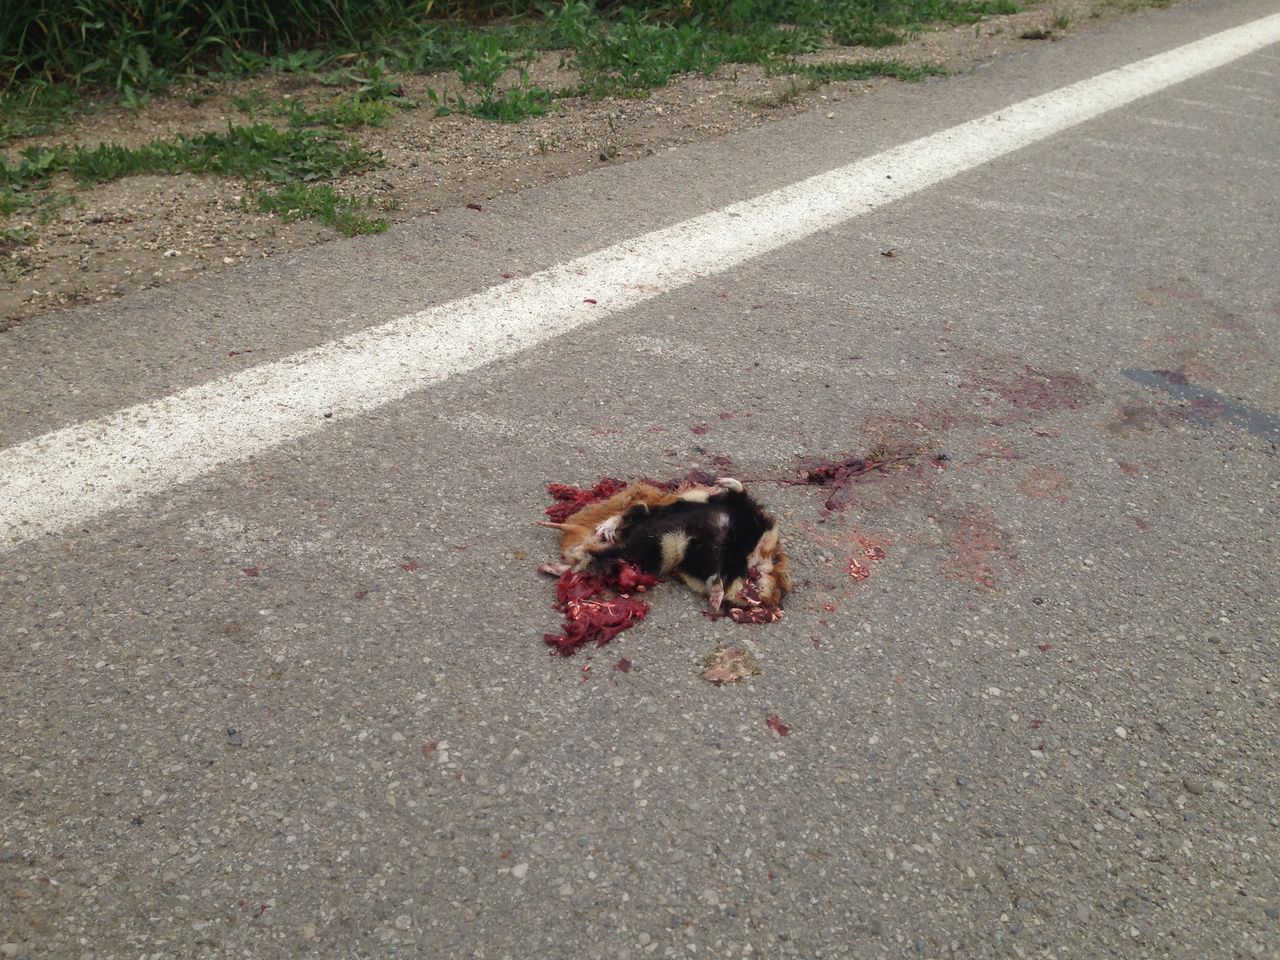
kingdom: Animalia
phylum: Chordata
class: Mammalia
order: Rodentia
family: Cricetidae
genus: Cricetus
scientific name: Cricetus cricetus
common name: Common hamster
